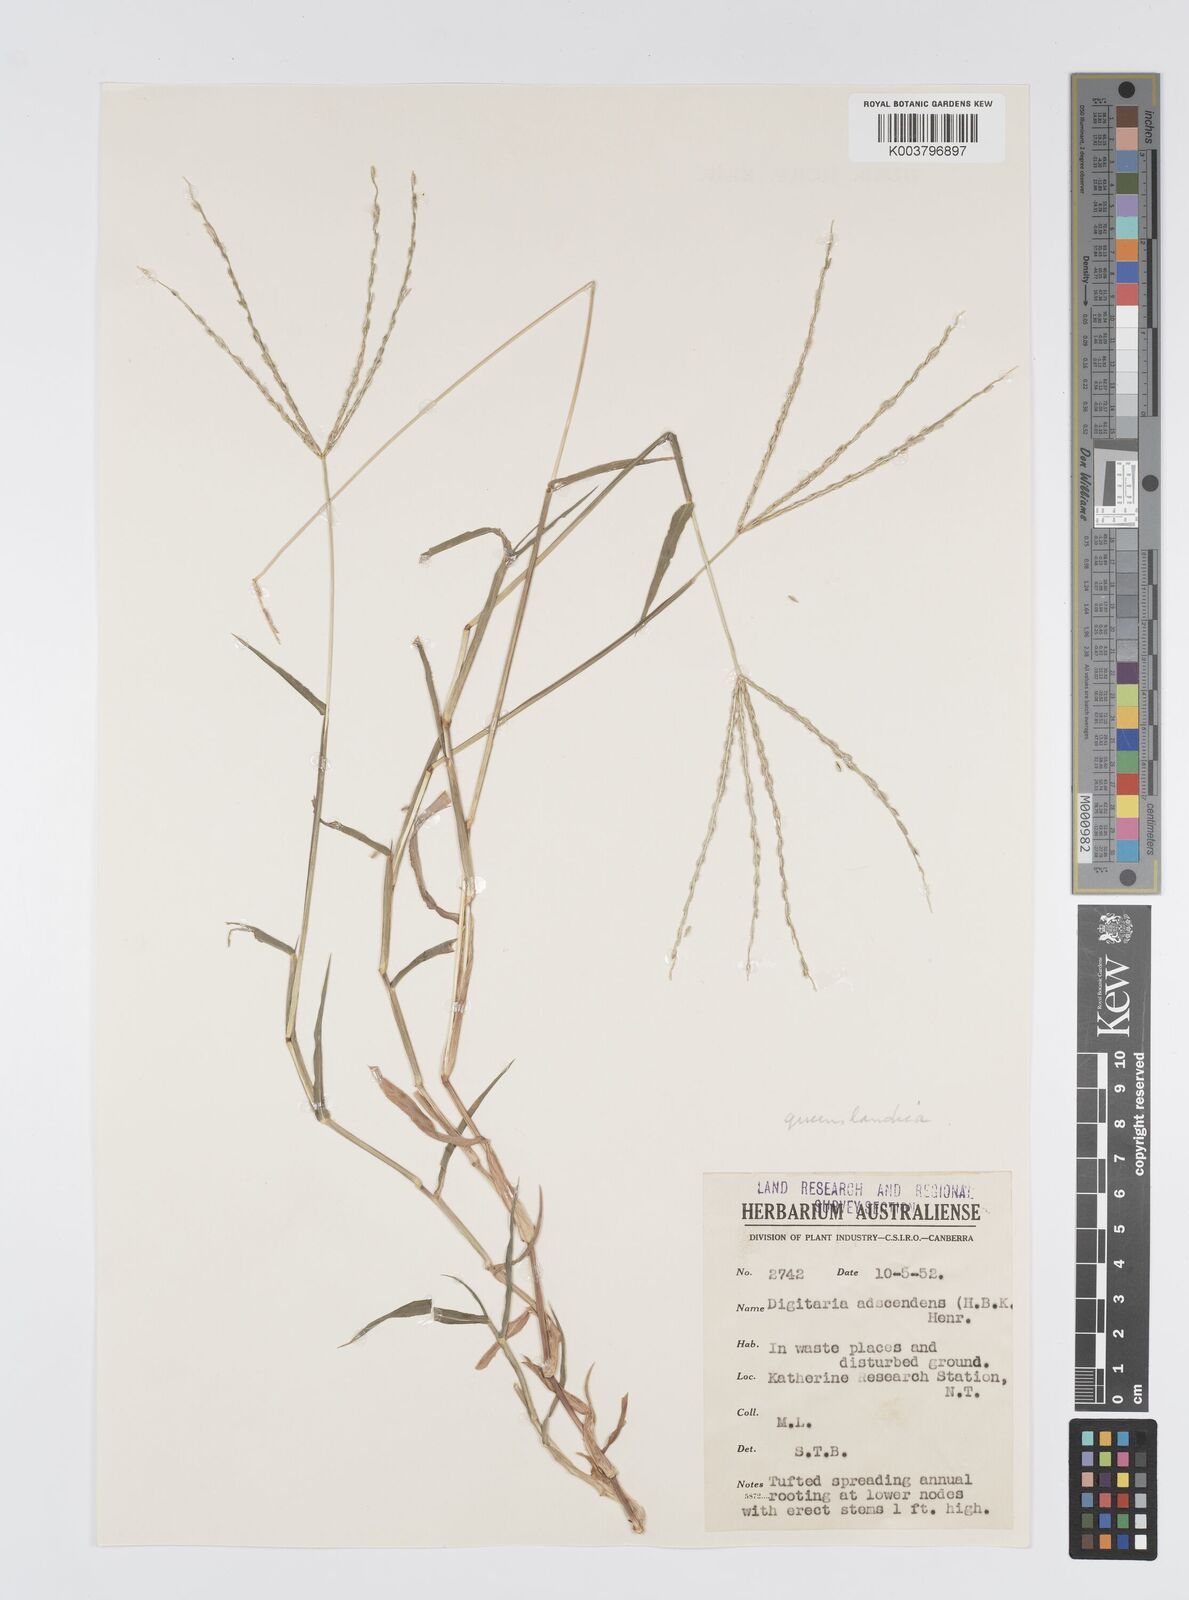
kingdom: Plantae
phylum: Tracheophyta
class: Liliopsida
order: Poales
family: Poaceae
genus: Digitaria
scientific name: Digitaria bicornis
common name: Asian crabgrass
